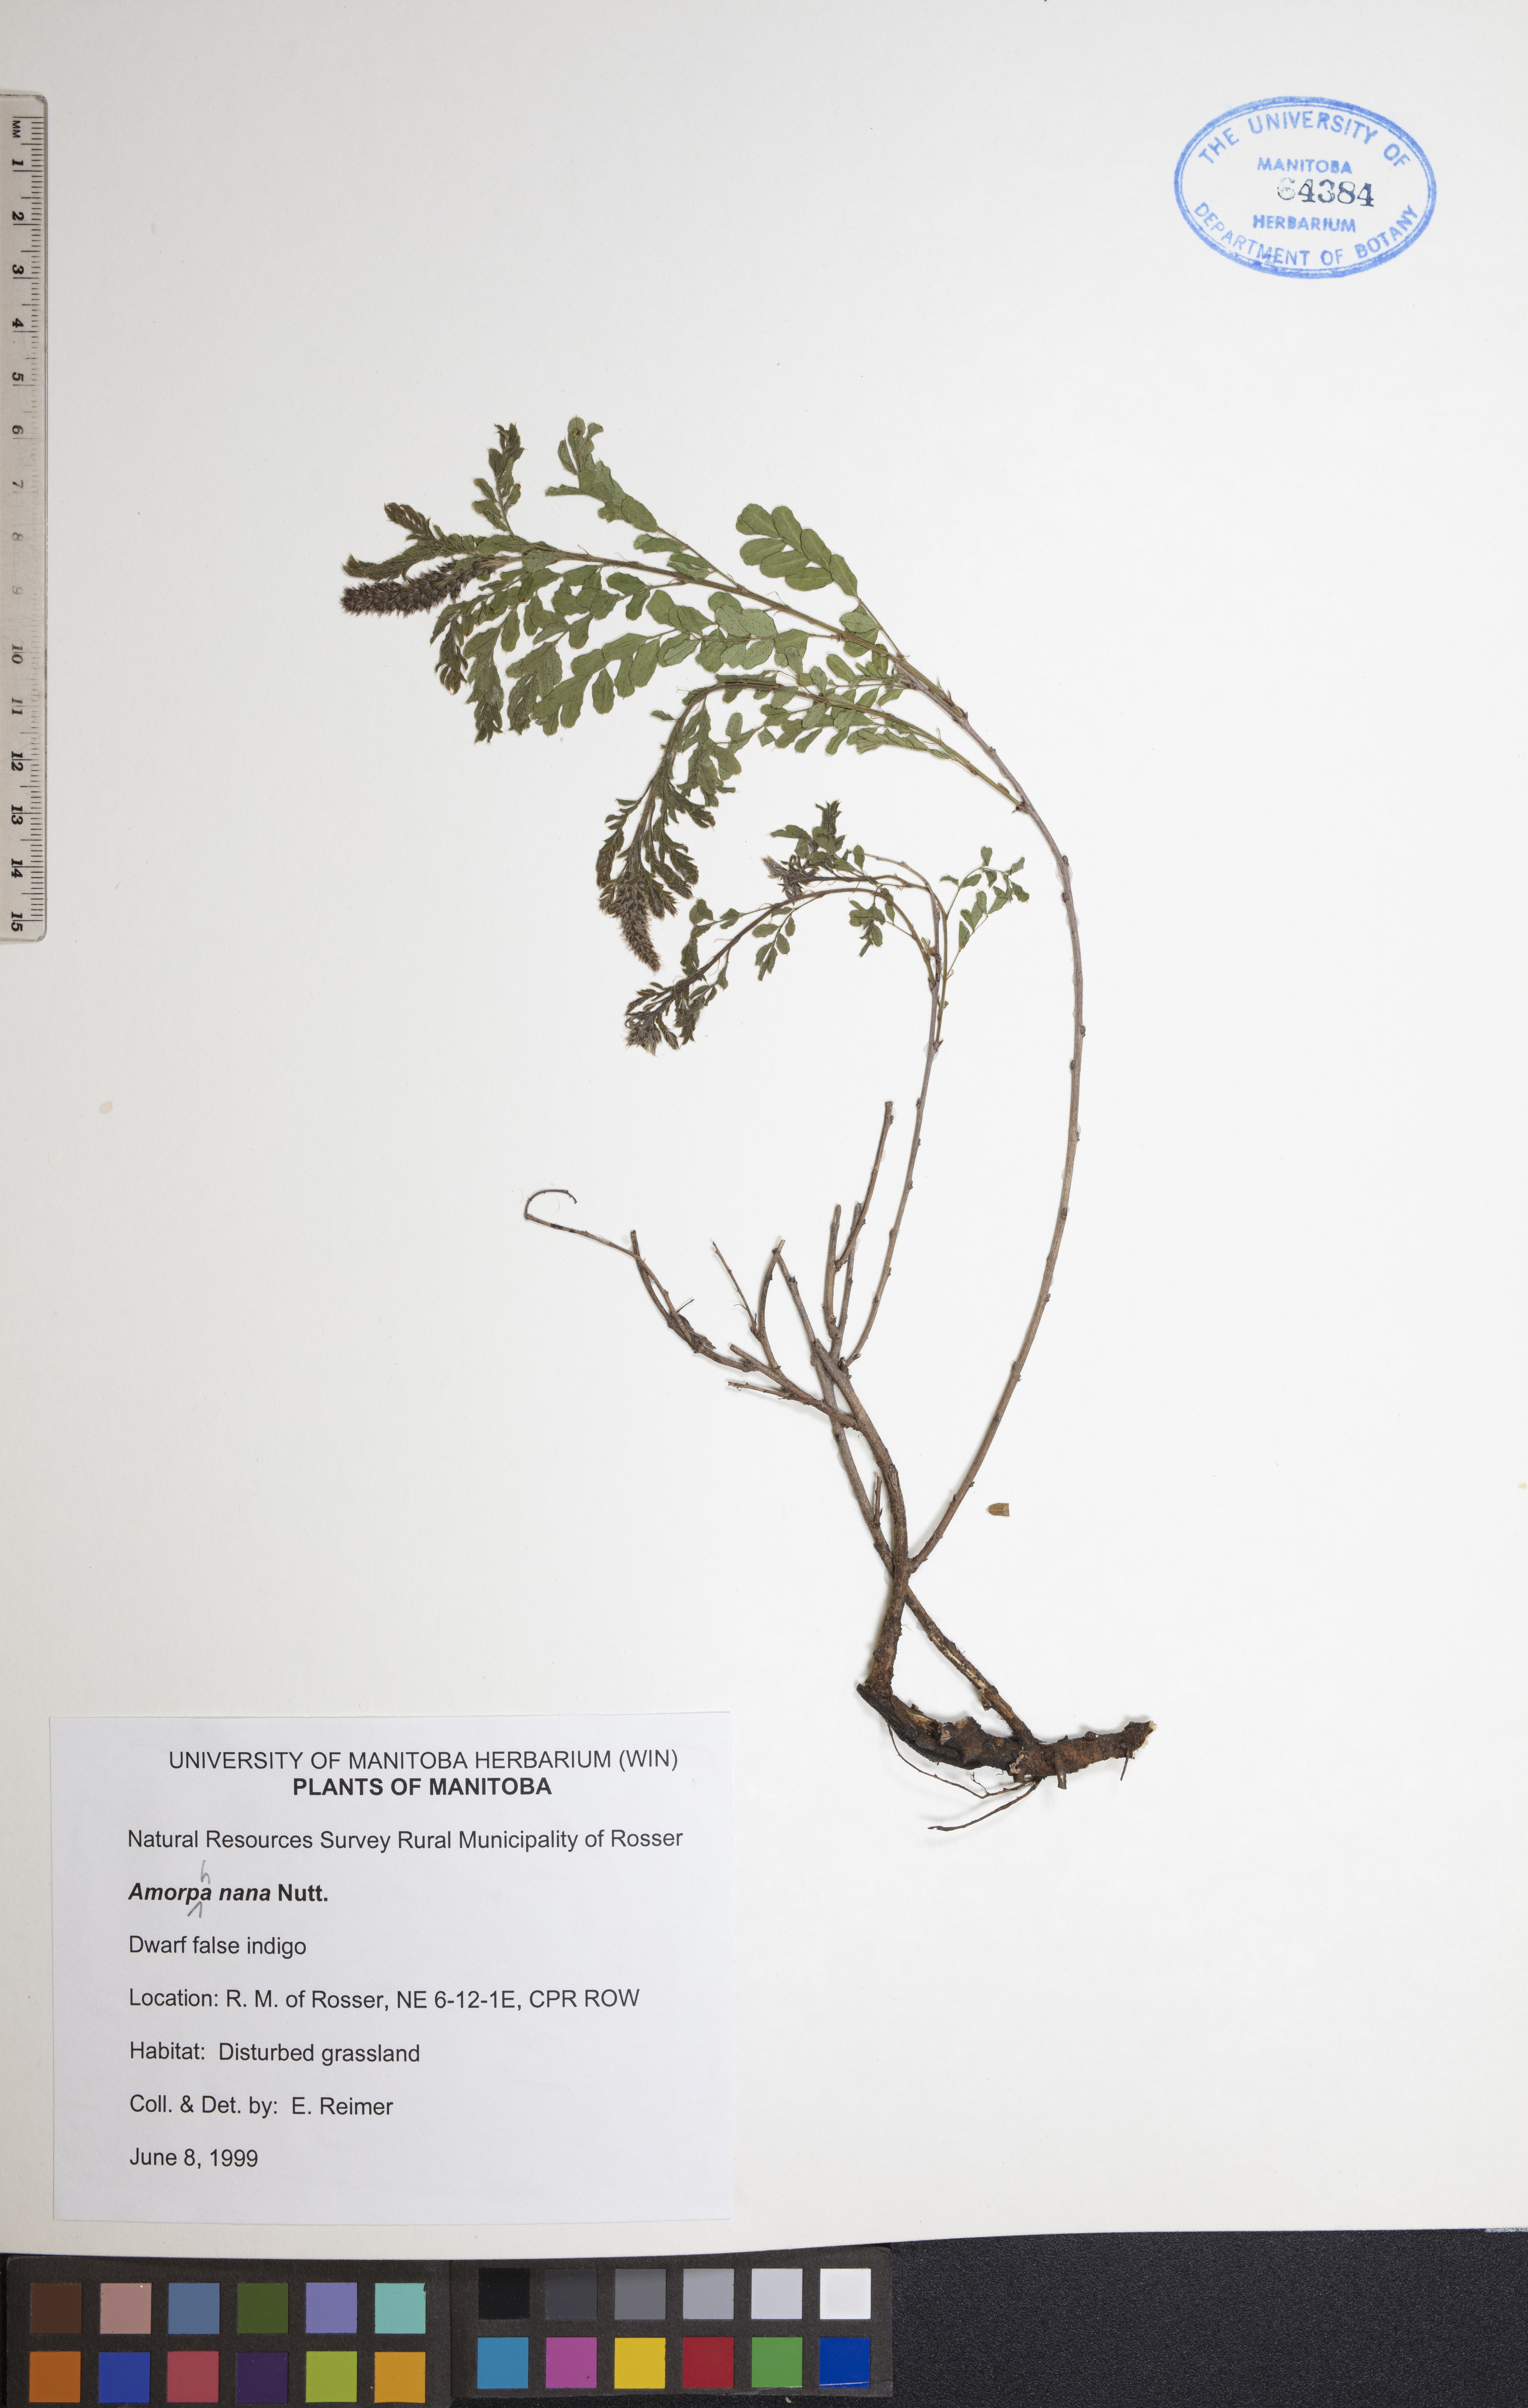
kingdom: Plantae
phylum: Tracheophyta
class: Magnoliopsida
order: Fabales
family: Fabaceae
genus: Amorpha
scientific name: Amorpha nana
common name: Fragrant false indigo
